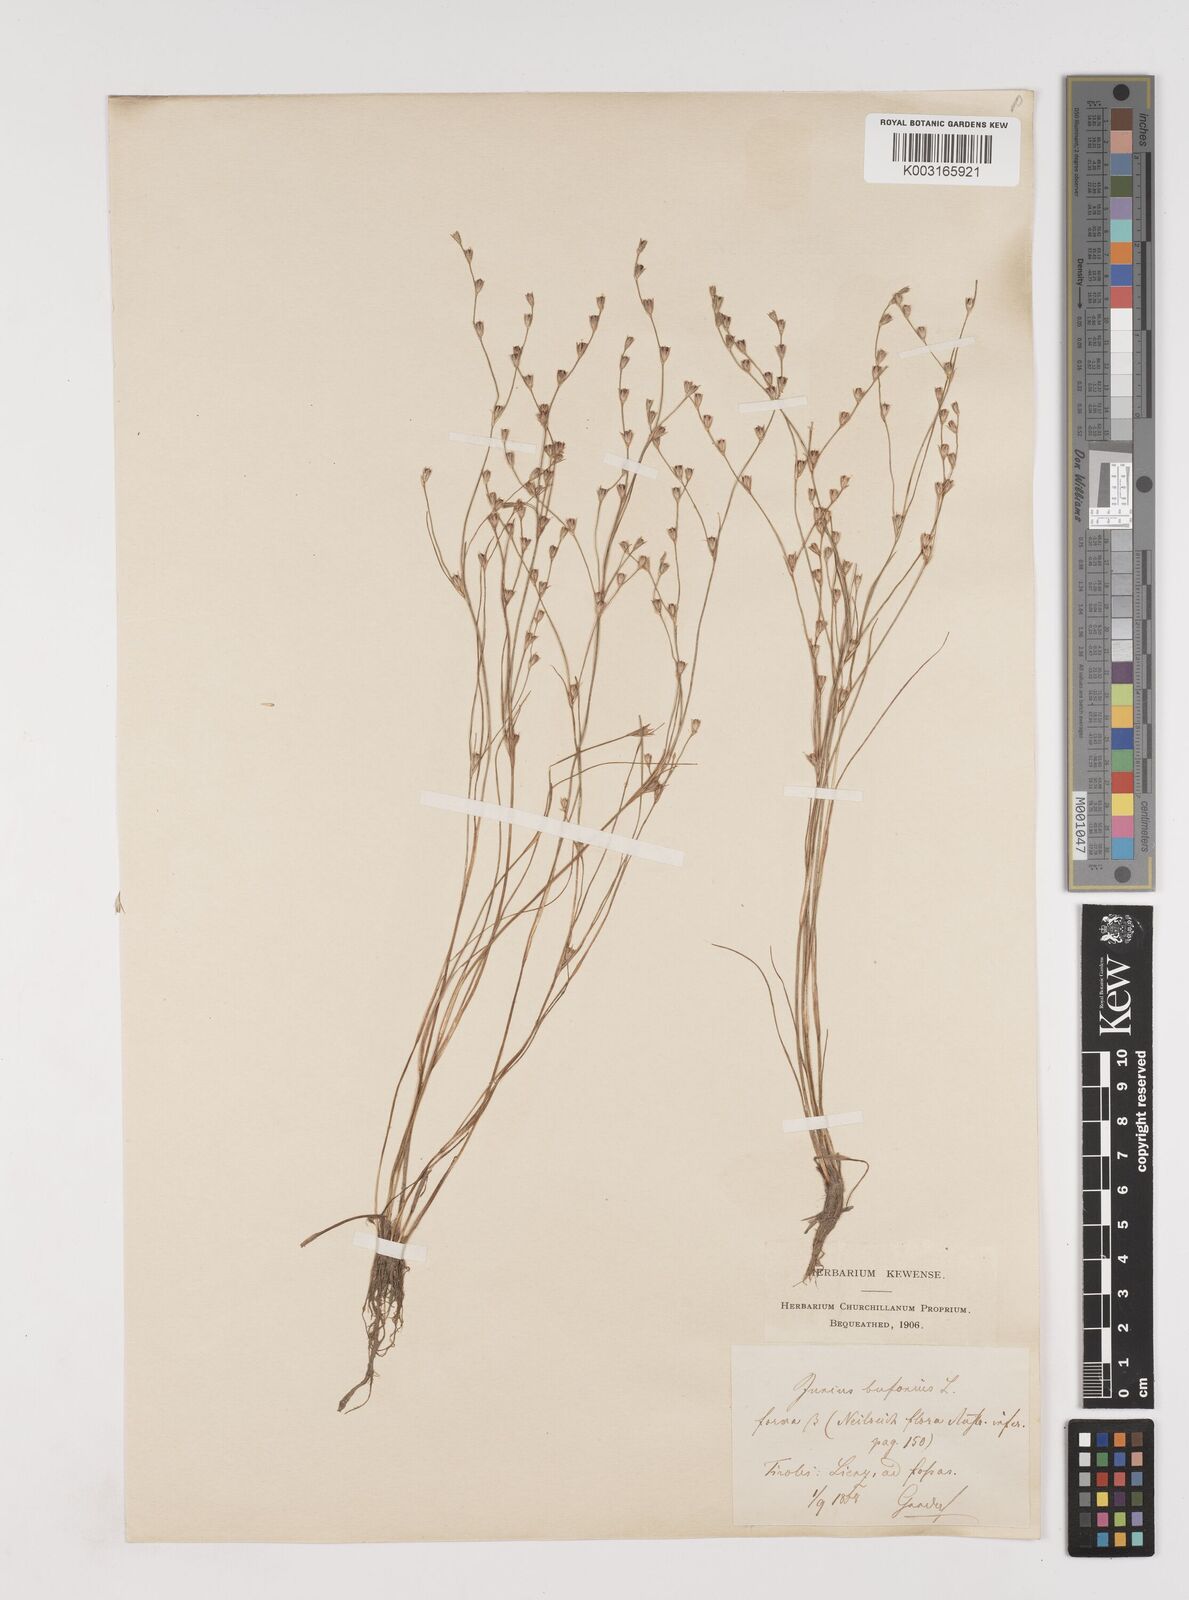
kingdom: Plantae
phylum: Tracheophyta
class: Liliopsida
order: Poales
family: Juncaceae
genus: Juncus
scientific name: Juncus bufonius
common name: Toad rush
